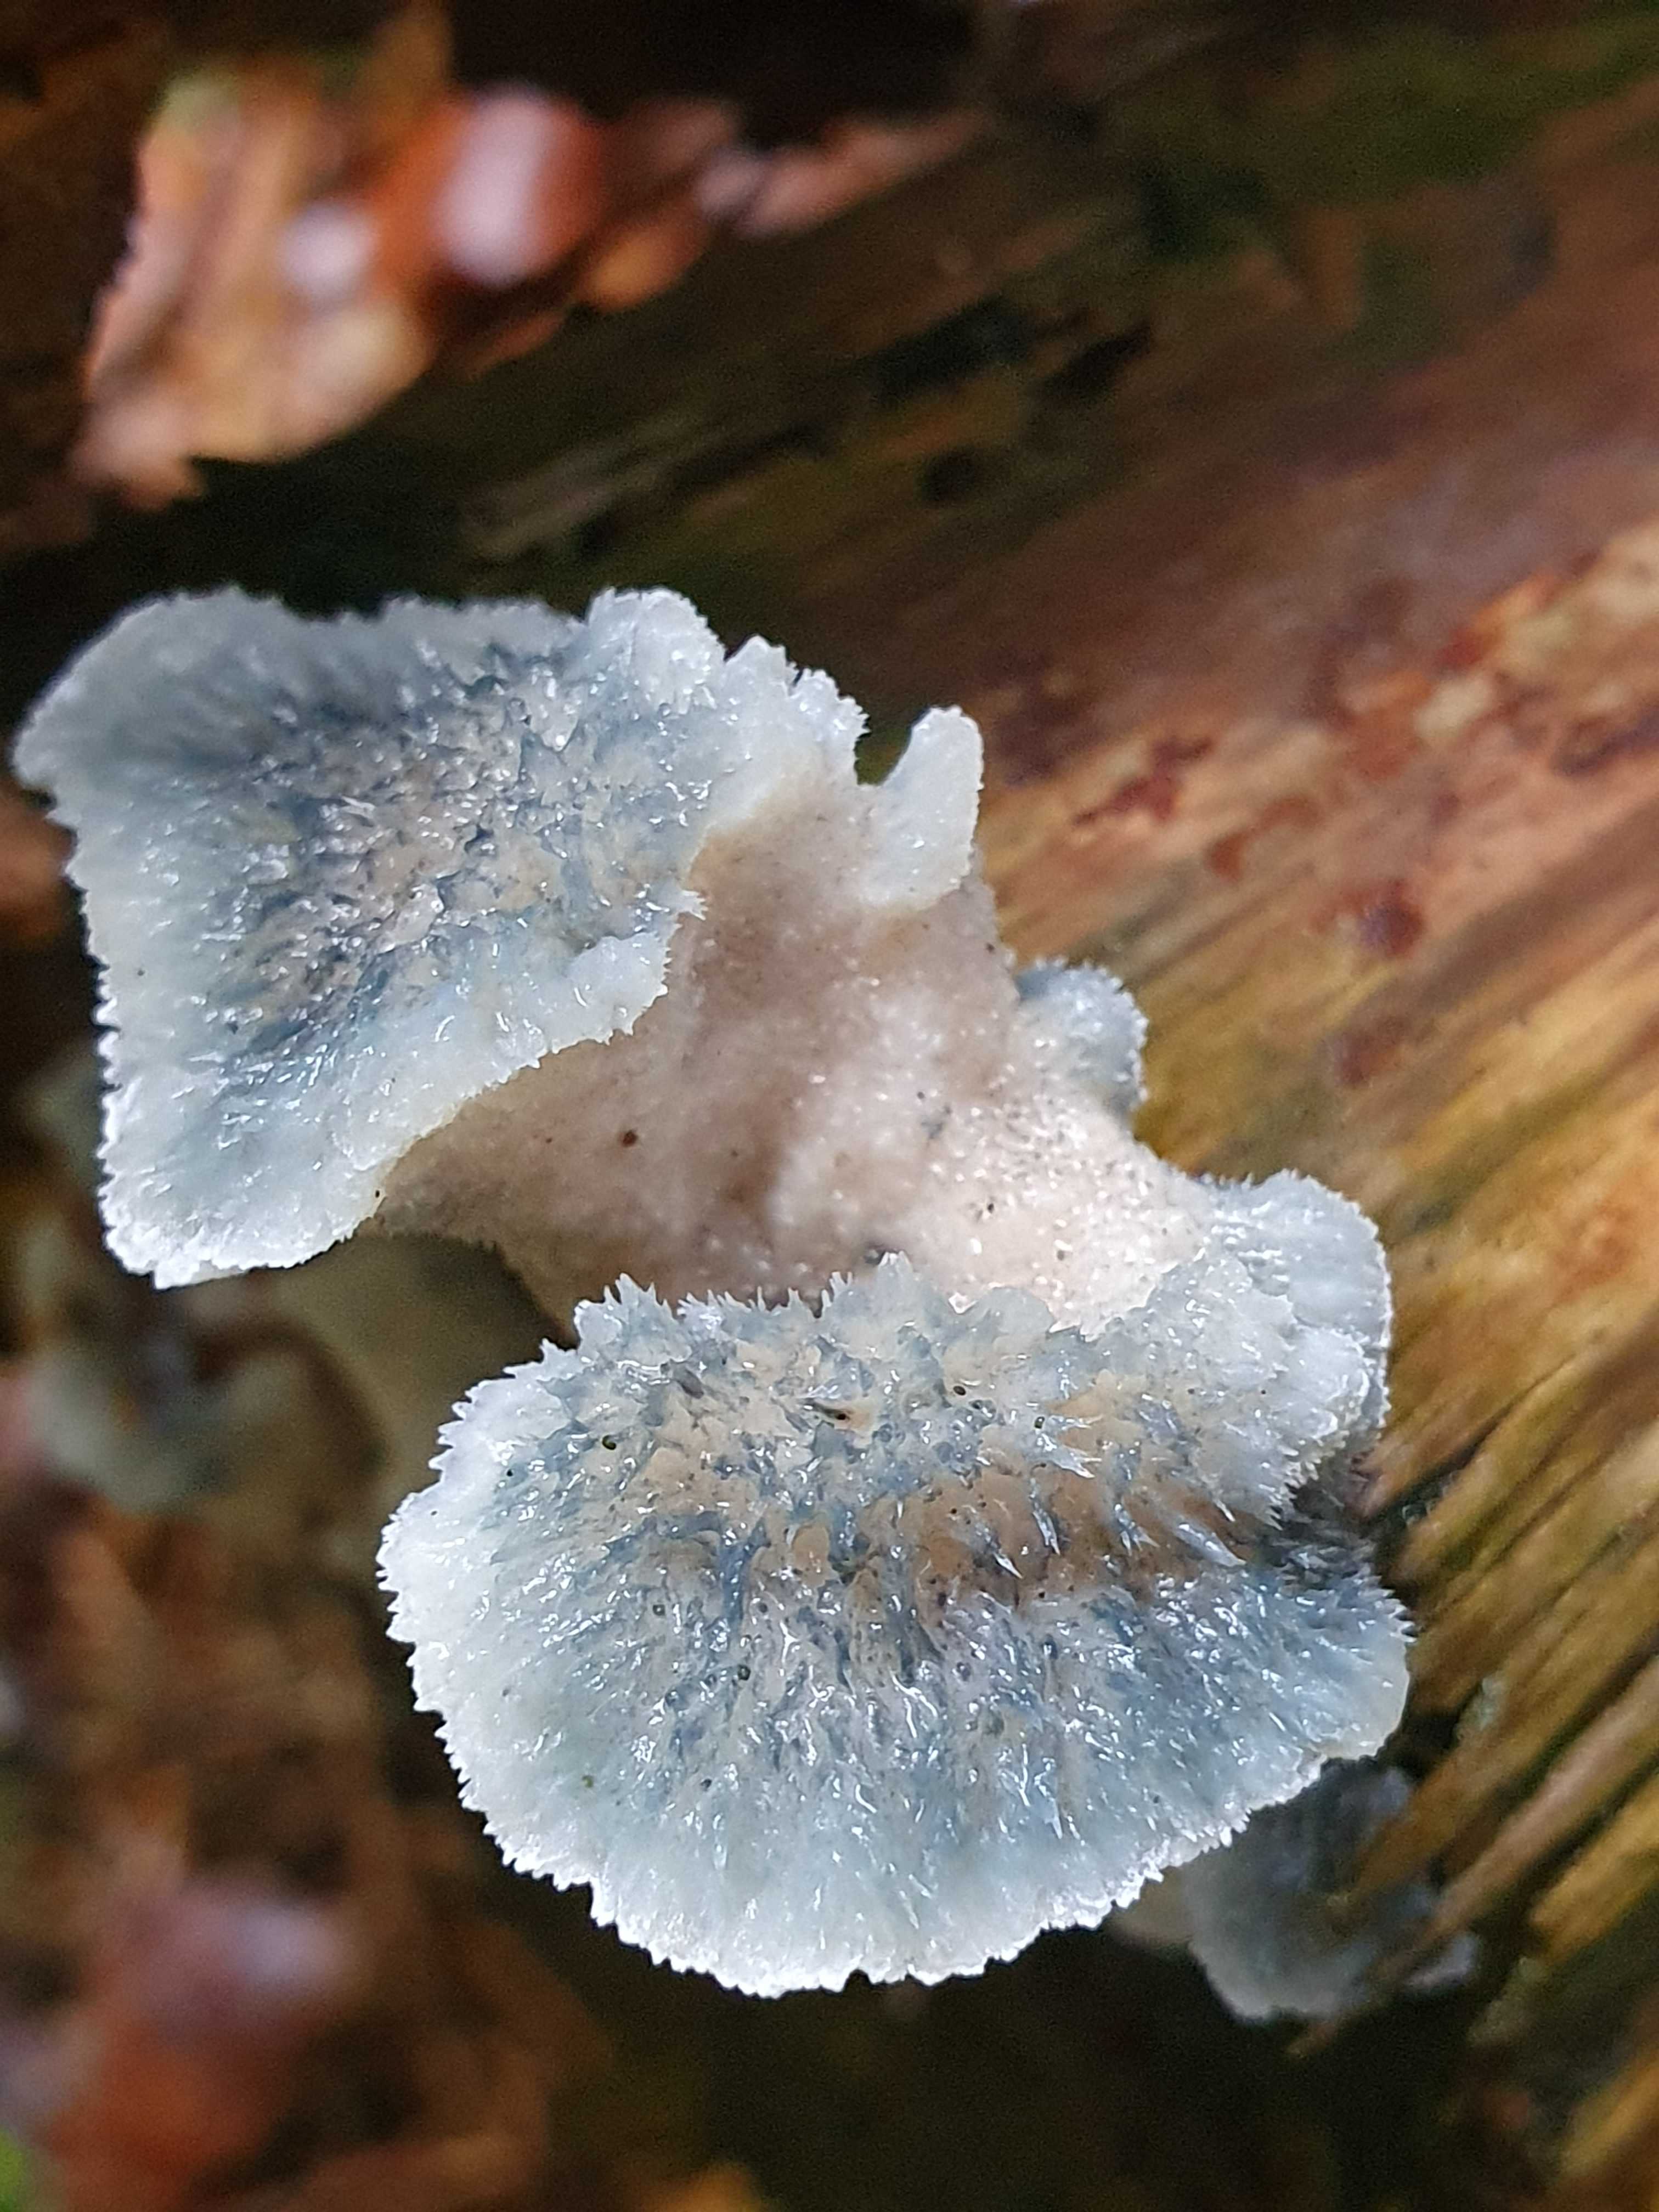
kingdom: Fungi
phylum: Basidiomycota
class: Agaricomycetes
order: Polyporales
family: Polyporaceae
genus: Cyanosporus
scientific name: Cyanosporus caesius
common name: blålig kødporesvamp
